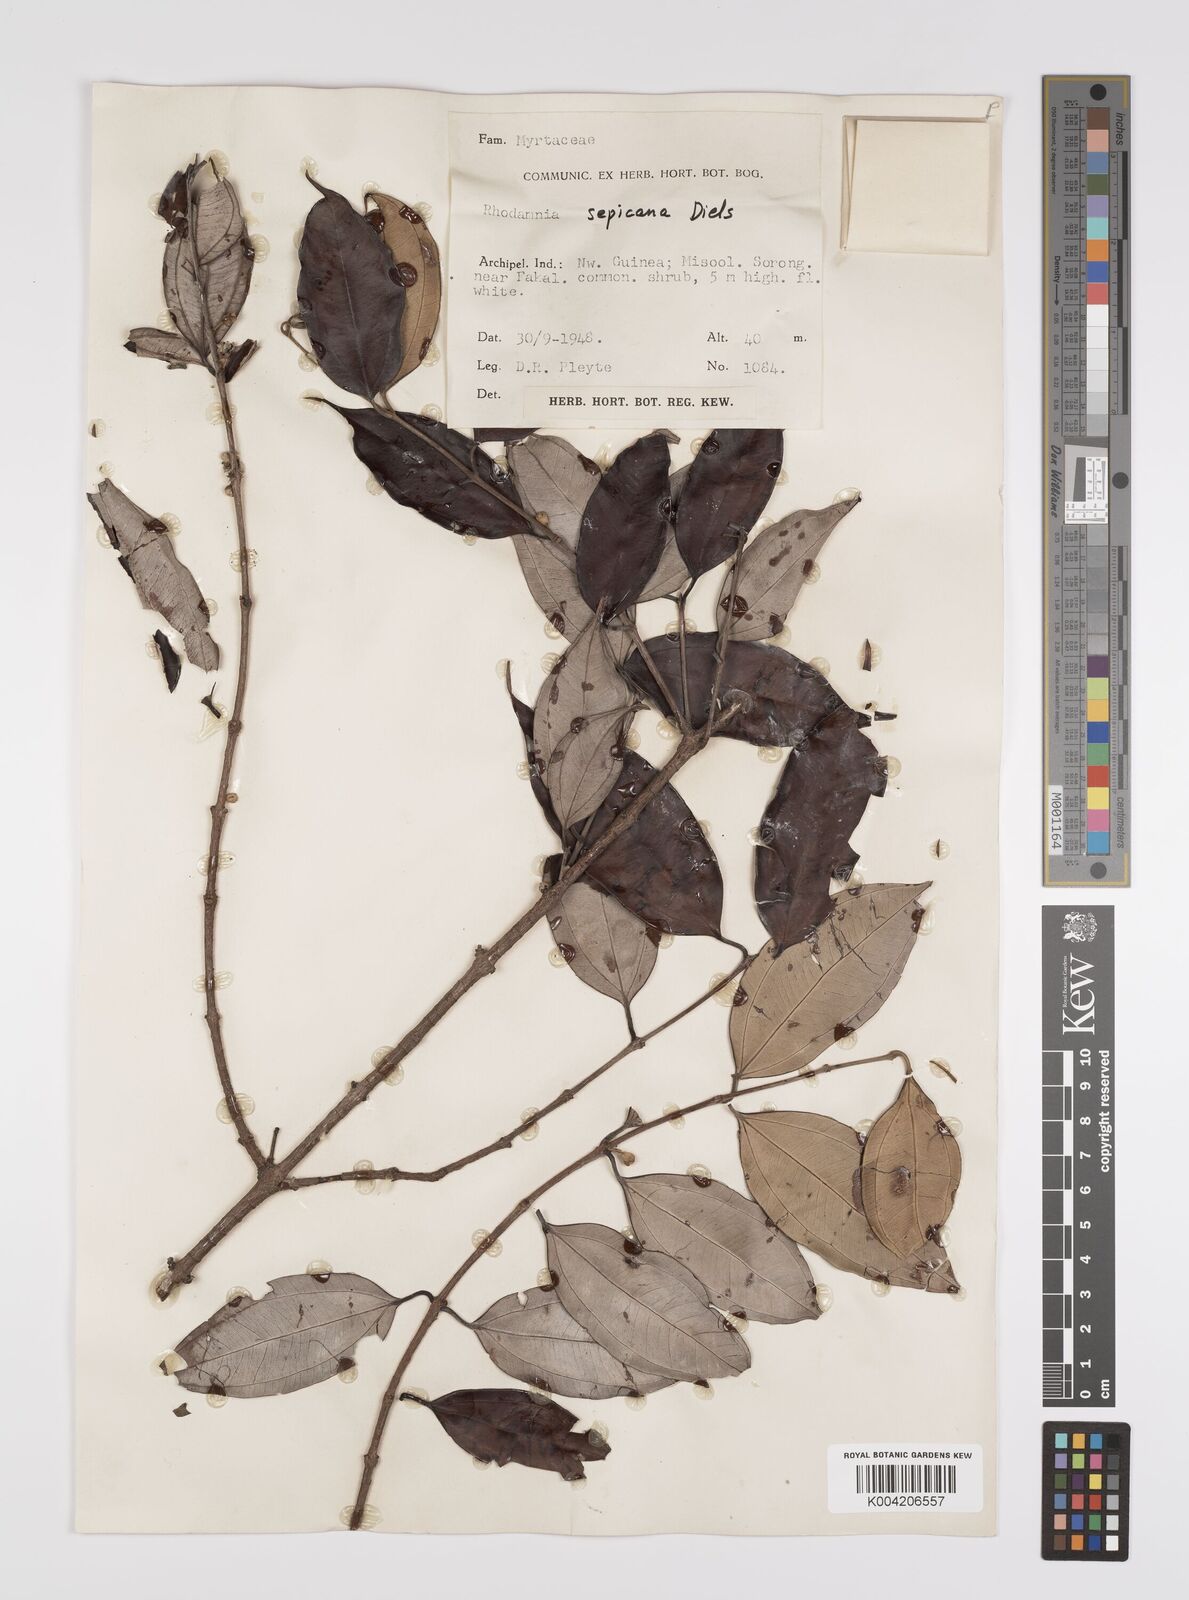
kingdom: Plantae
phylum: Tracheophyta
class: Magnoliopsida
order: Myrtales
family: Myrtaceae
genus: Rhodamnia
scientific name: Rhodamnia sepicana
